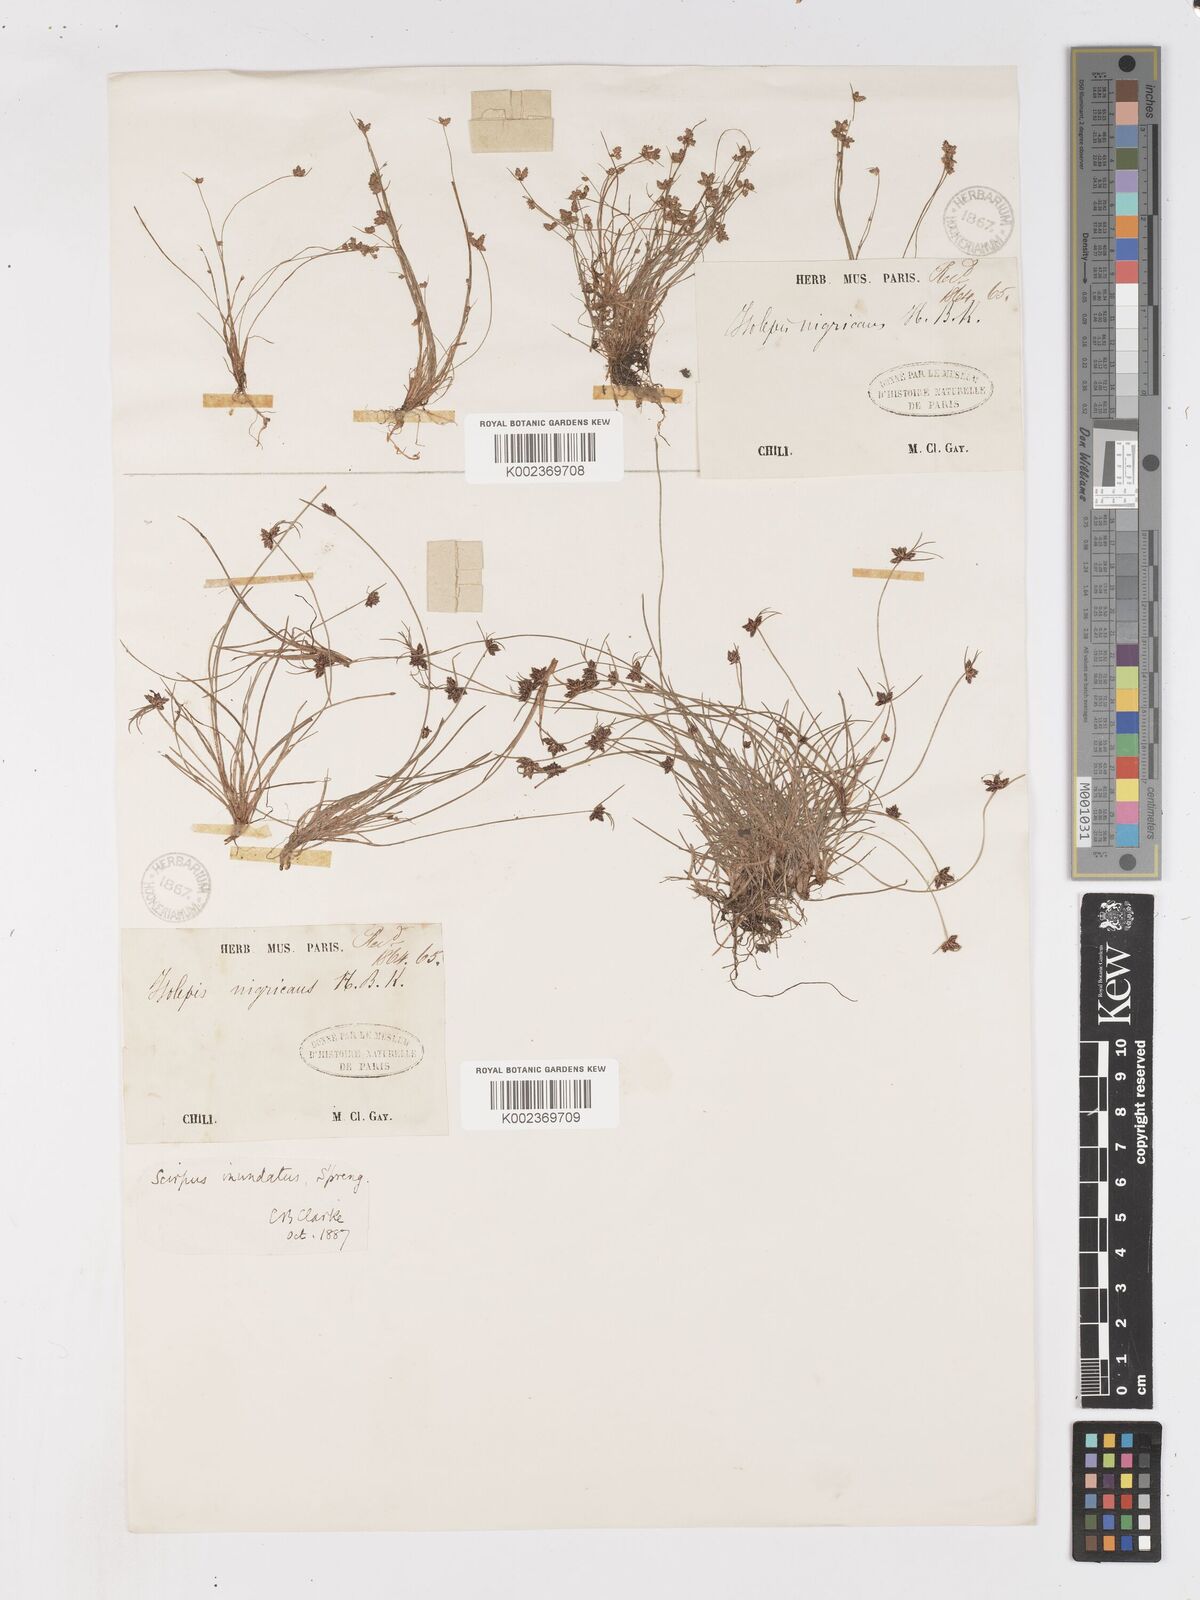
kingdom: Plantae
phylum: Tracheophyta
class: Liliopsida
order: Poales
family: Cyperaceae
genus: Isolepis
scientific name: Isolepis inundata
